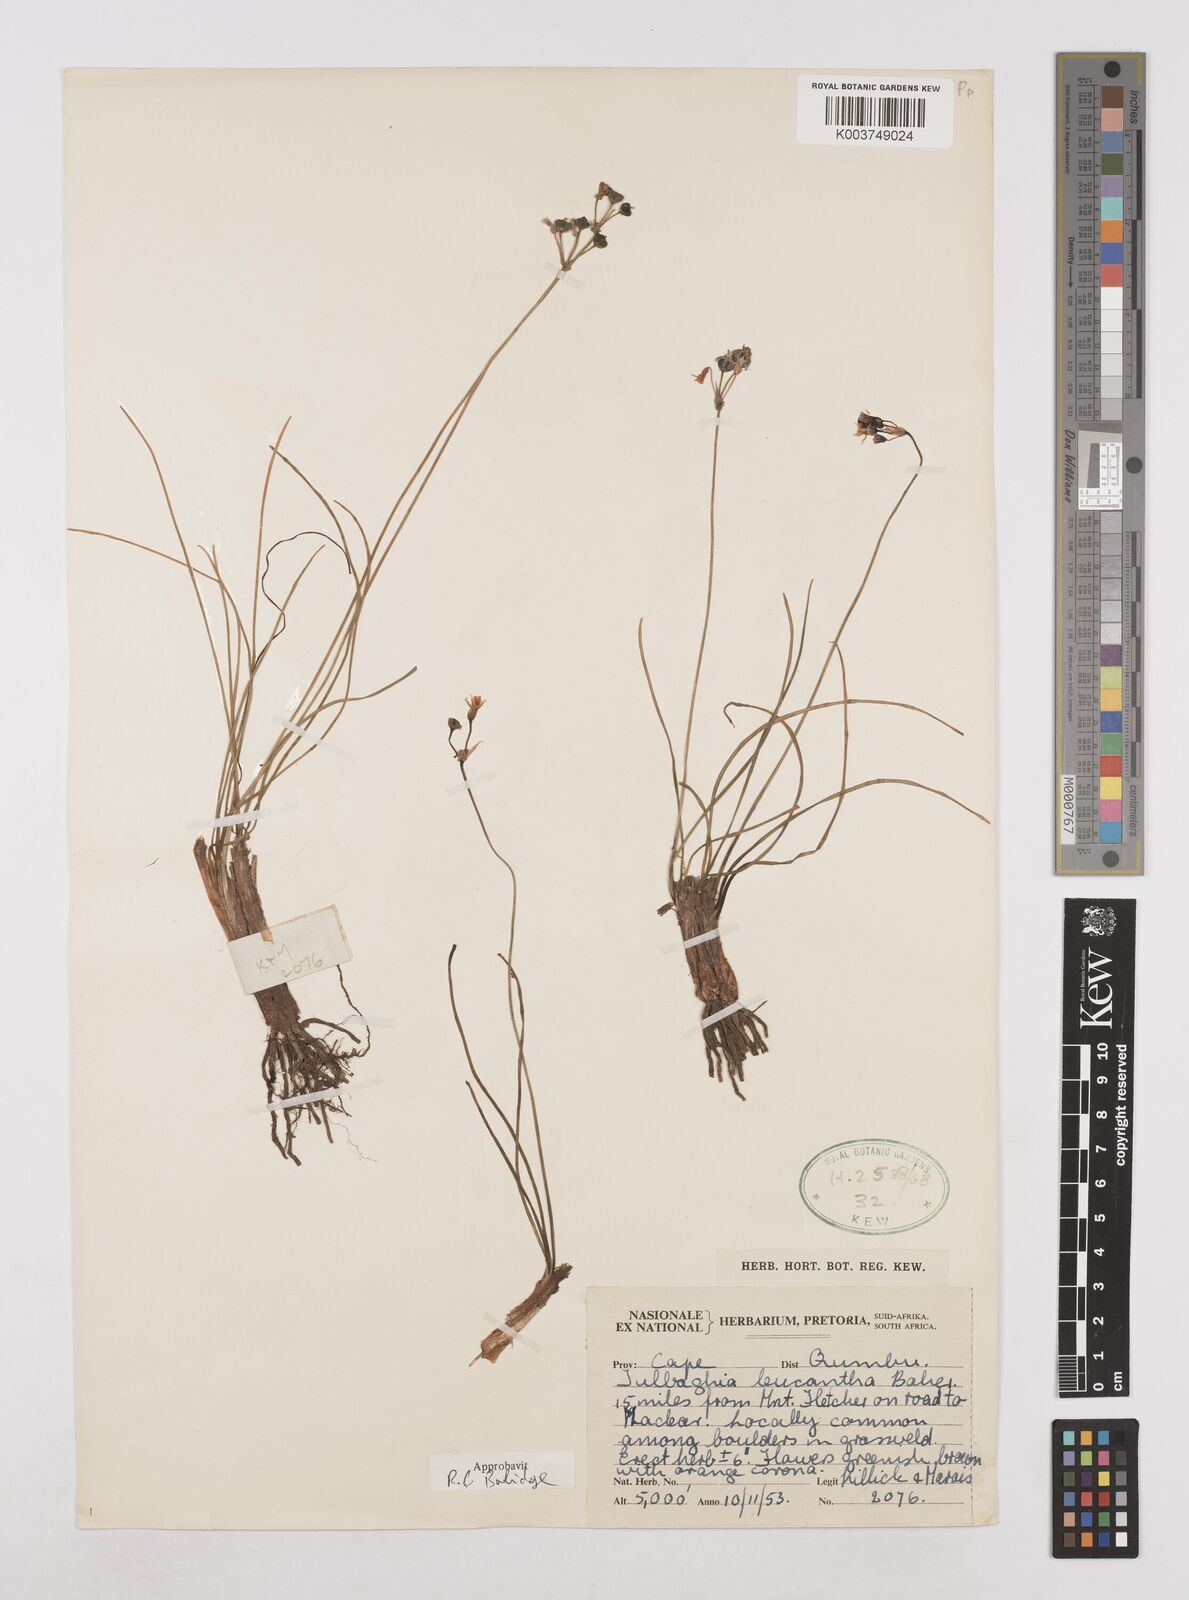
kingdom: Plantae
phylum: Tracheophyta
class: Liliopsida
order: Asparagales
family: Amaryllidaceae
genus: Tulbaghia
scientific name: Tulbaghia leucantha
